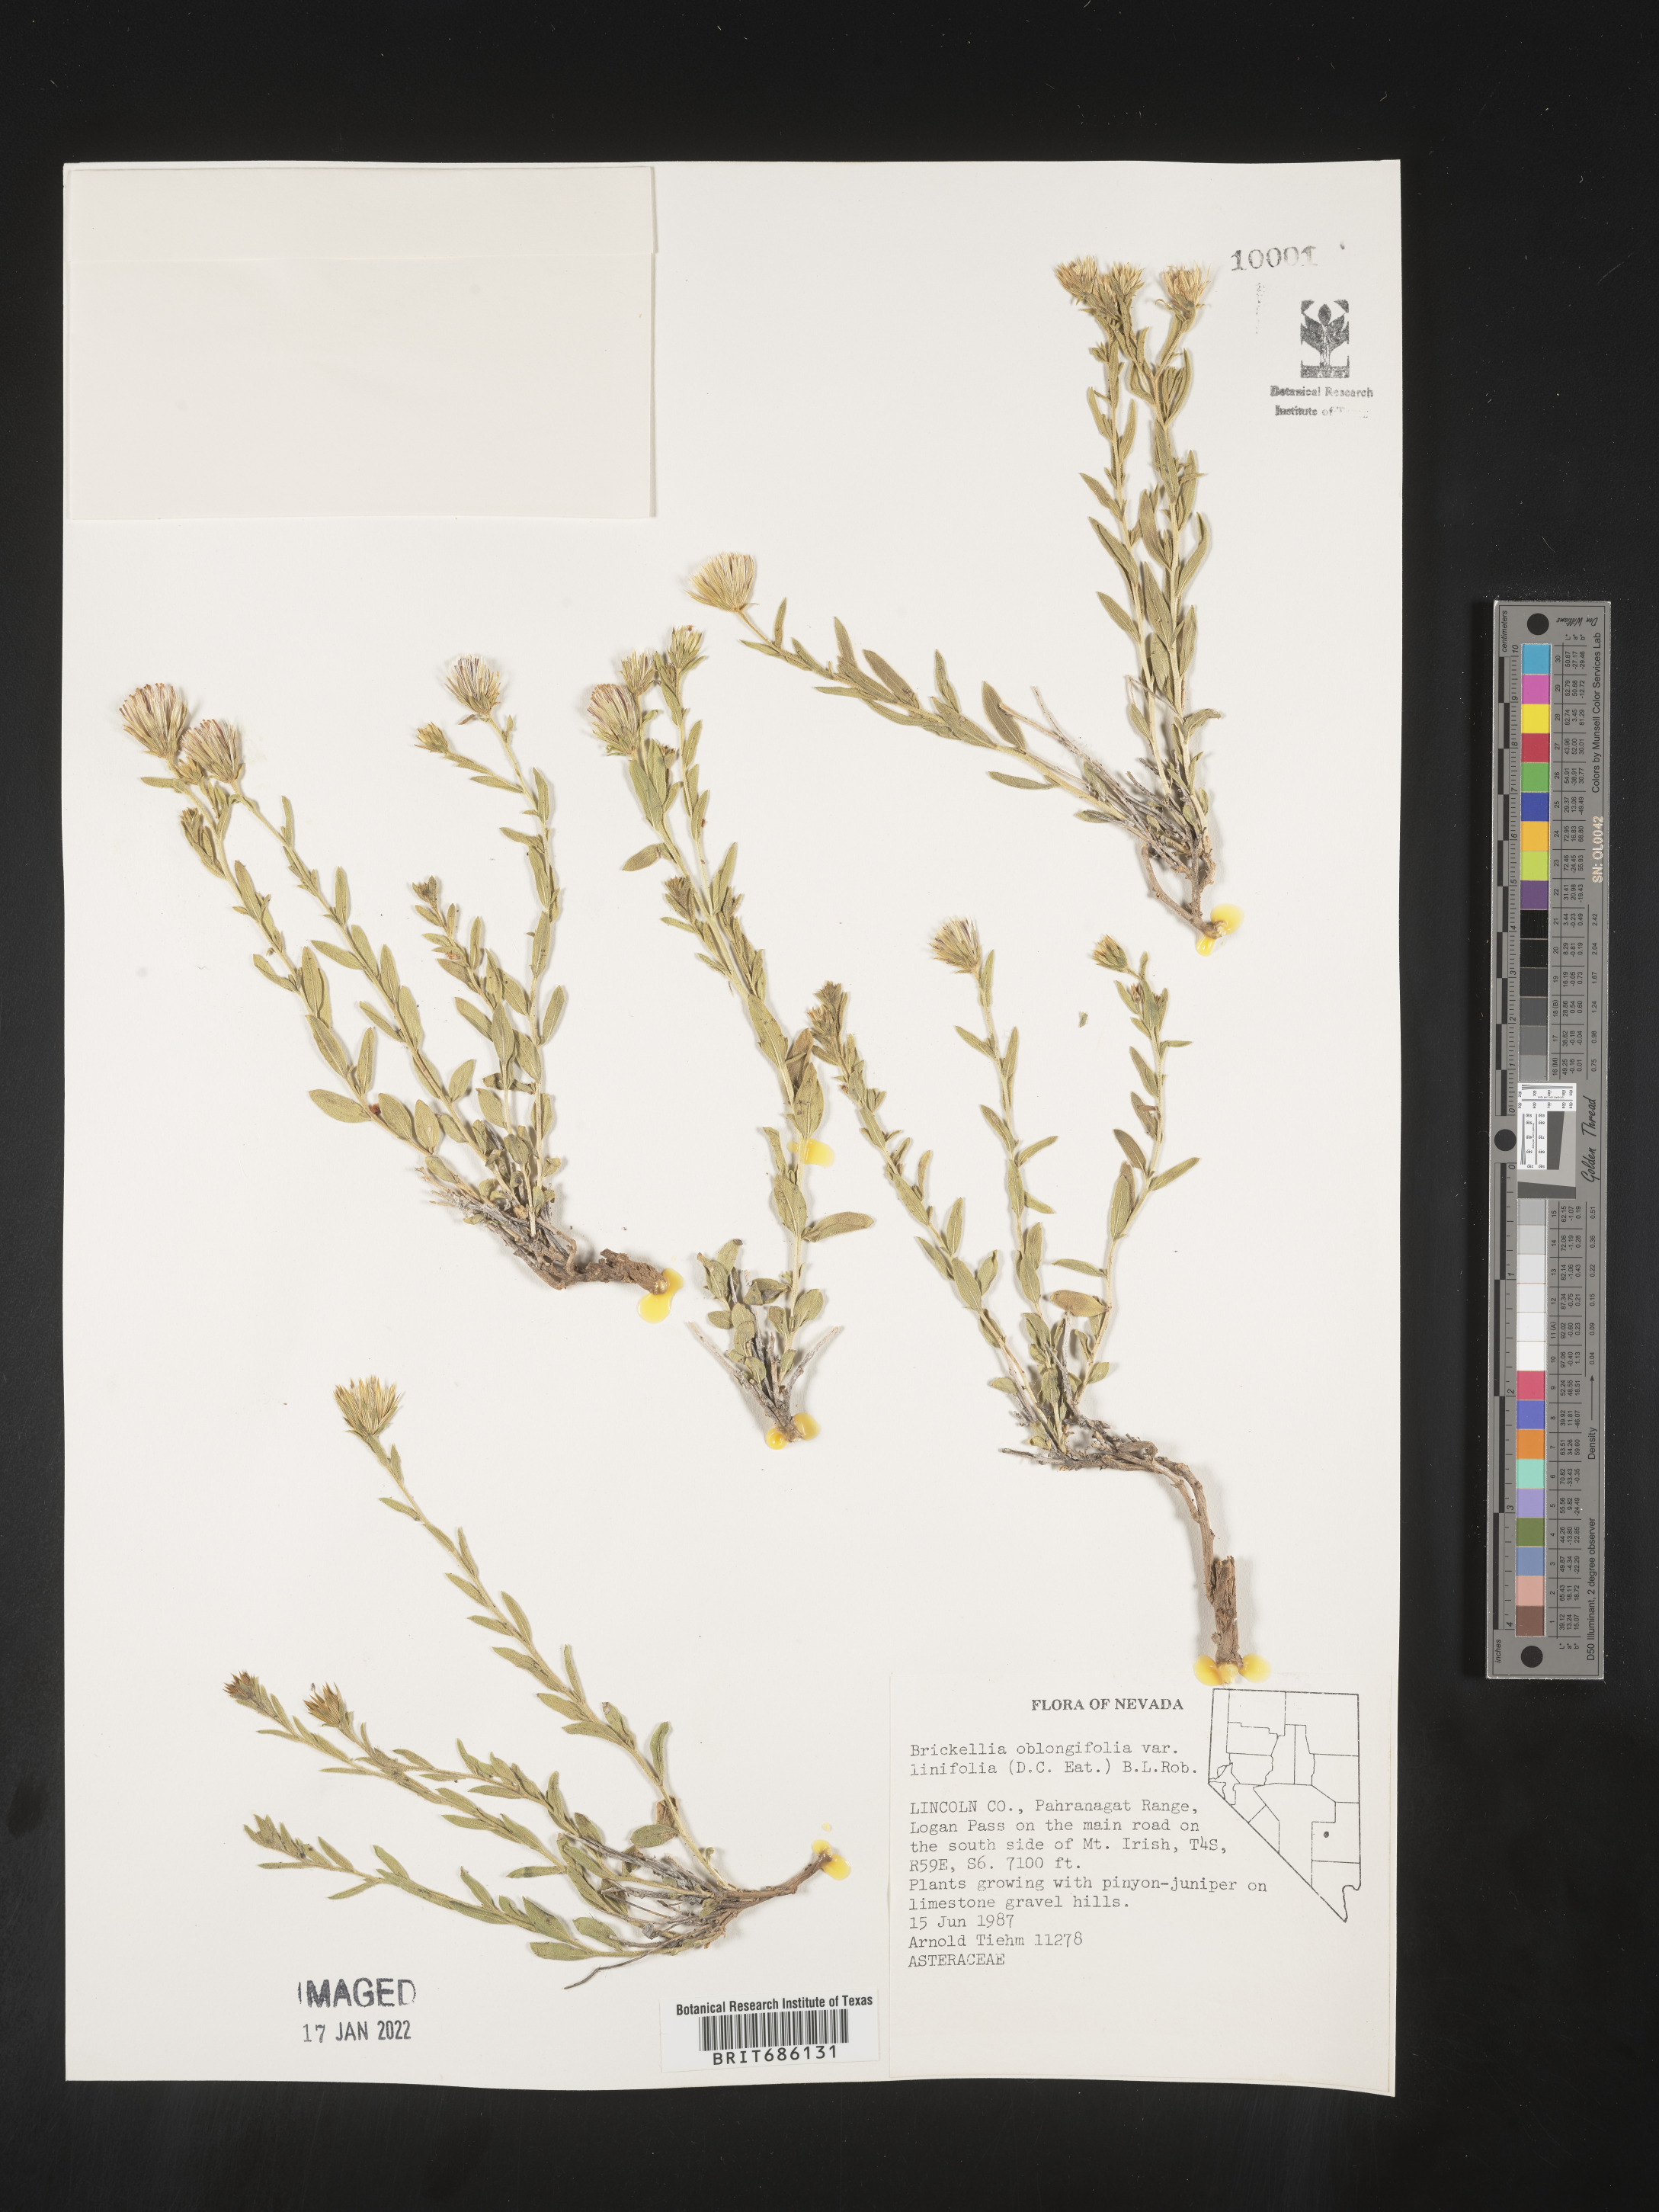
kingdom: Plantae
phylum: Tracheophyta
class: Magnoliopsida
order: Asterales
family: Asteraceae
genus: Brickellia
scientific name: Brickellia oblongifolia
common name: Mojave brickellbush
